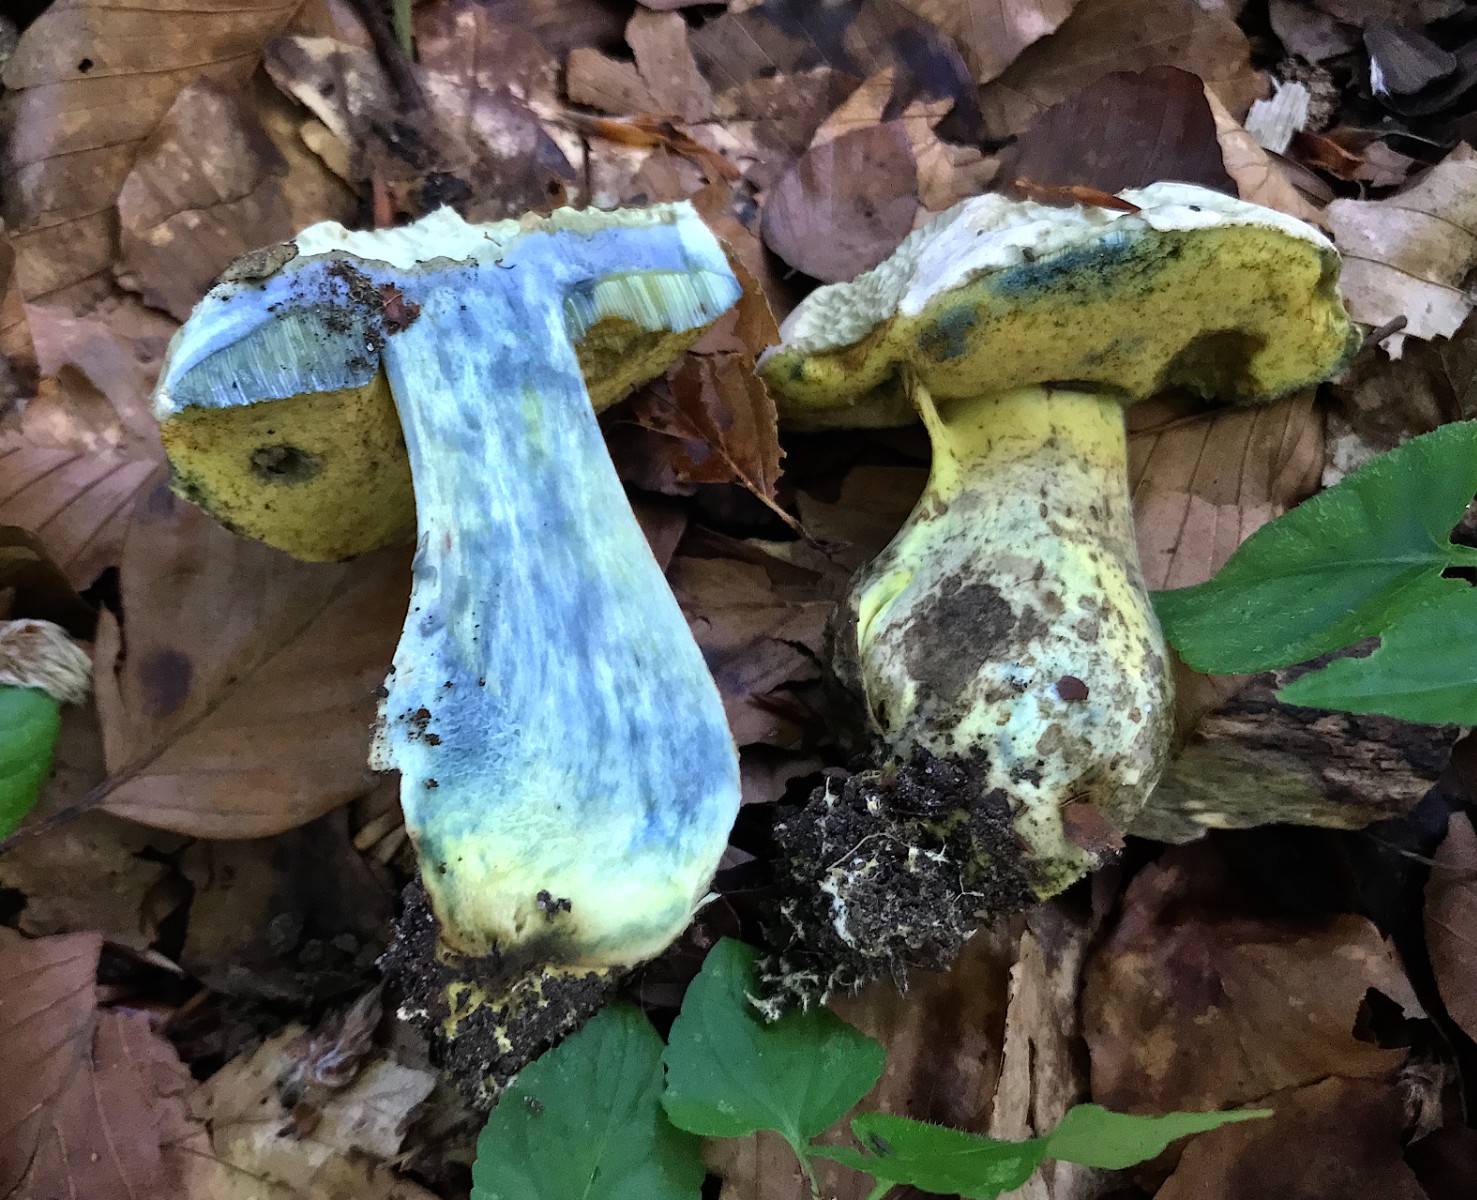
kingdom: Fungi
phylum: Basidiomycota
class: Agaricomycetes
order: Boletales
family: Boletaceae
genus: Caloboletus
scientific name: Caloboletus radicans
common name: rod-rørhat
